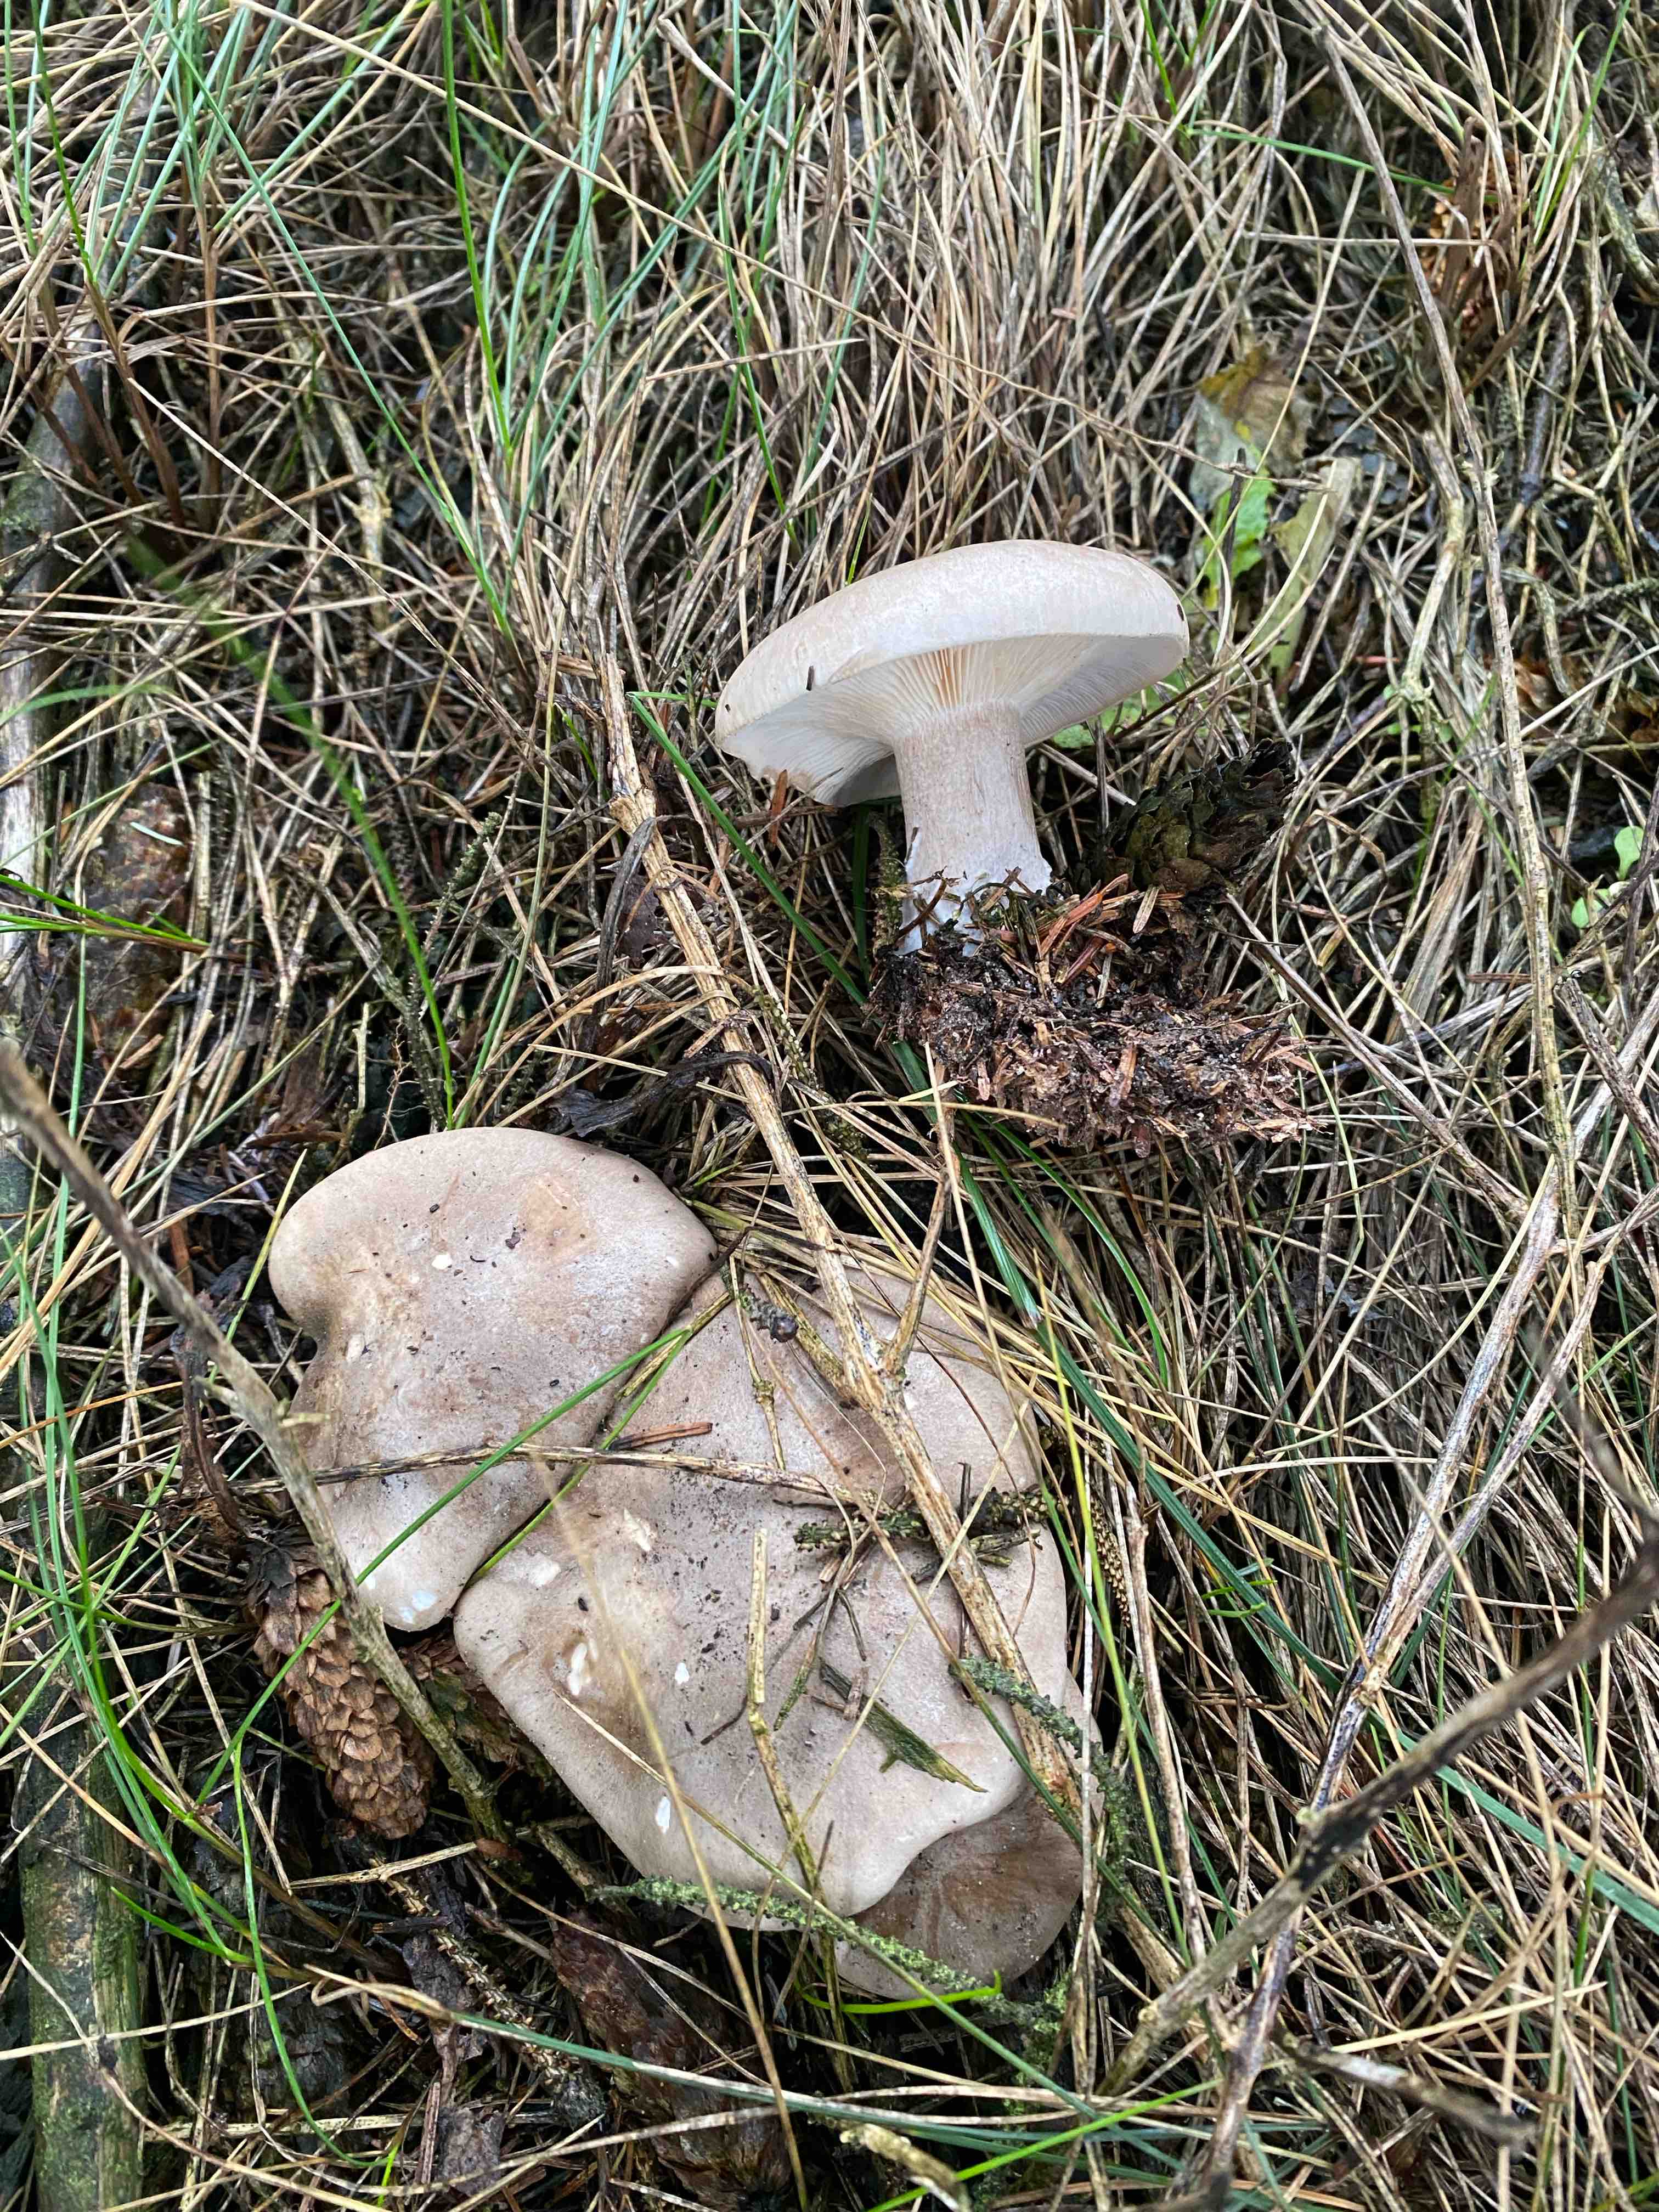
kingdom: Fungi
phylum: Basidiomycota
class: Agaricomycetes
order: Agaricales
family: Tricholomataceae
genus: Clitocybe
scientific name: Clitocybe nebularis
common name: tåge-tragthat
